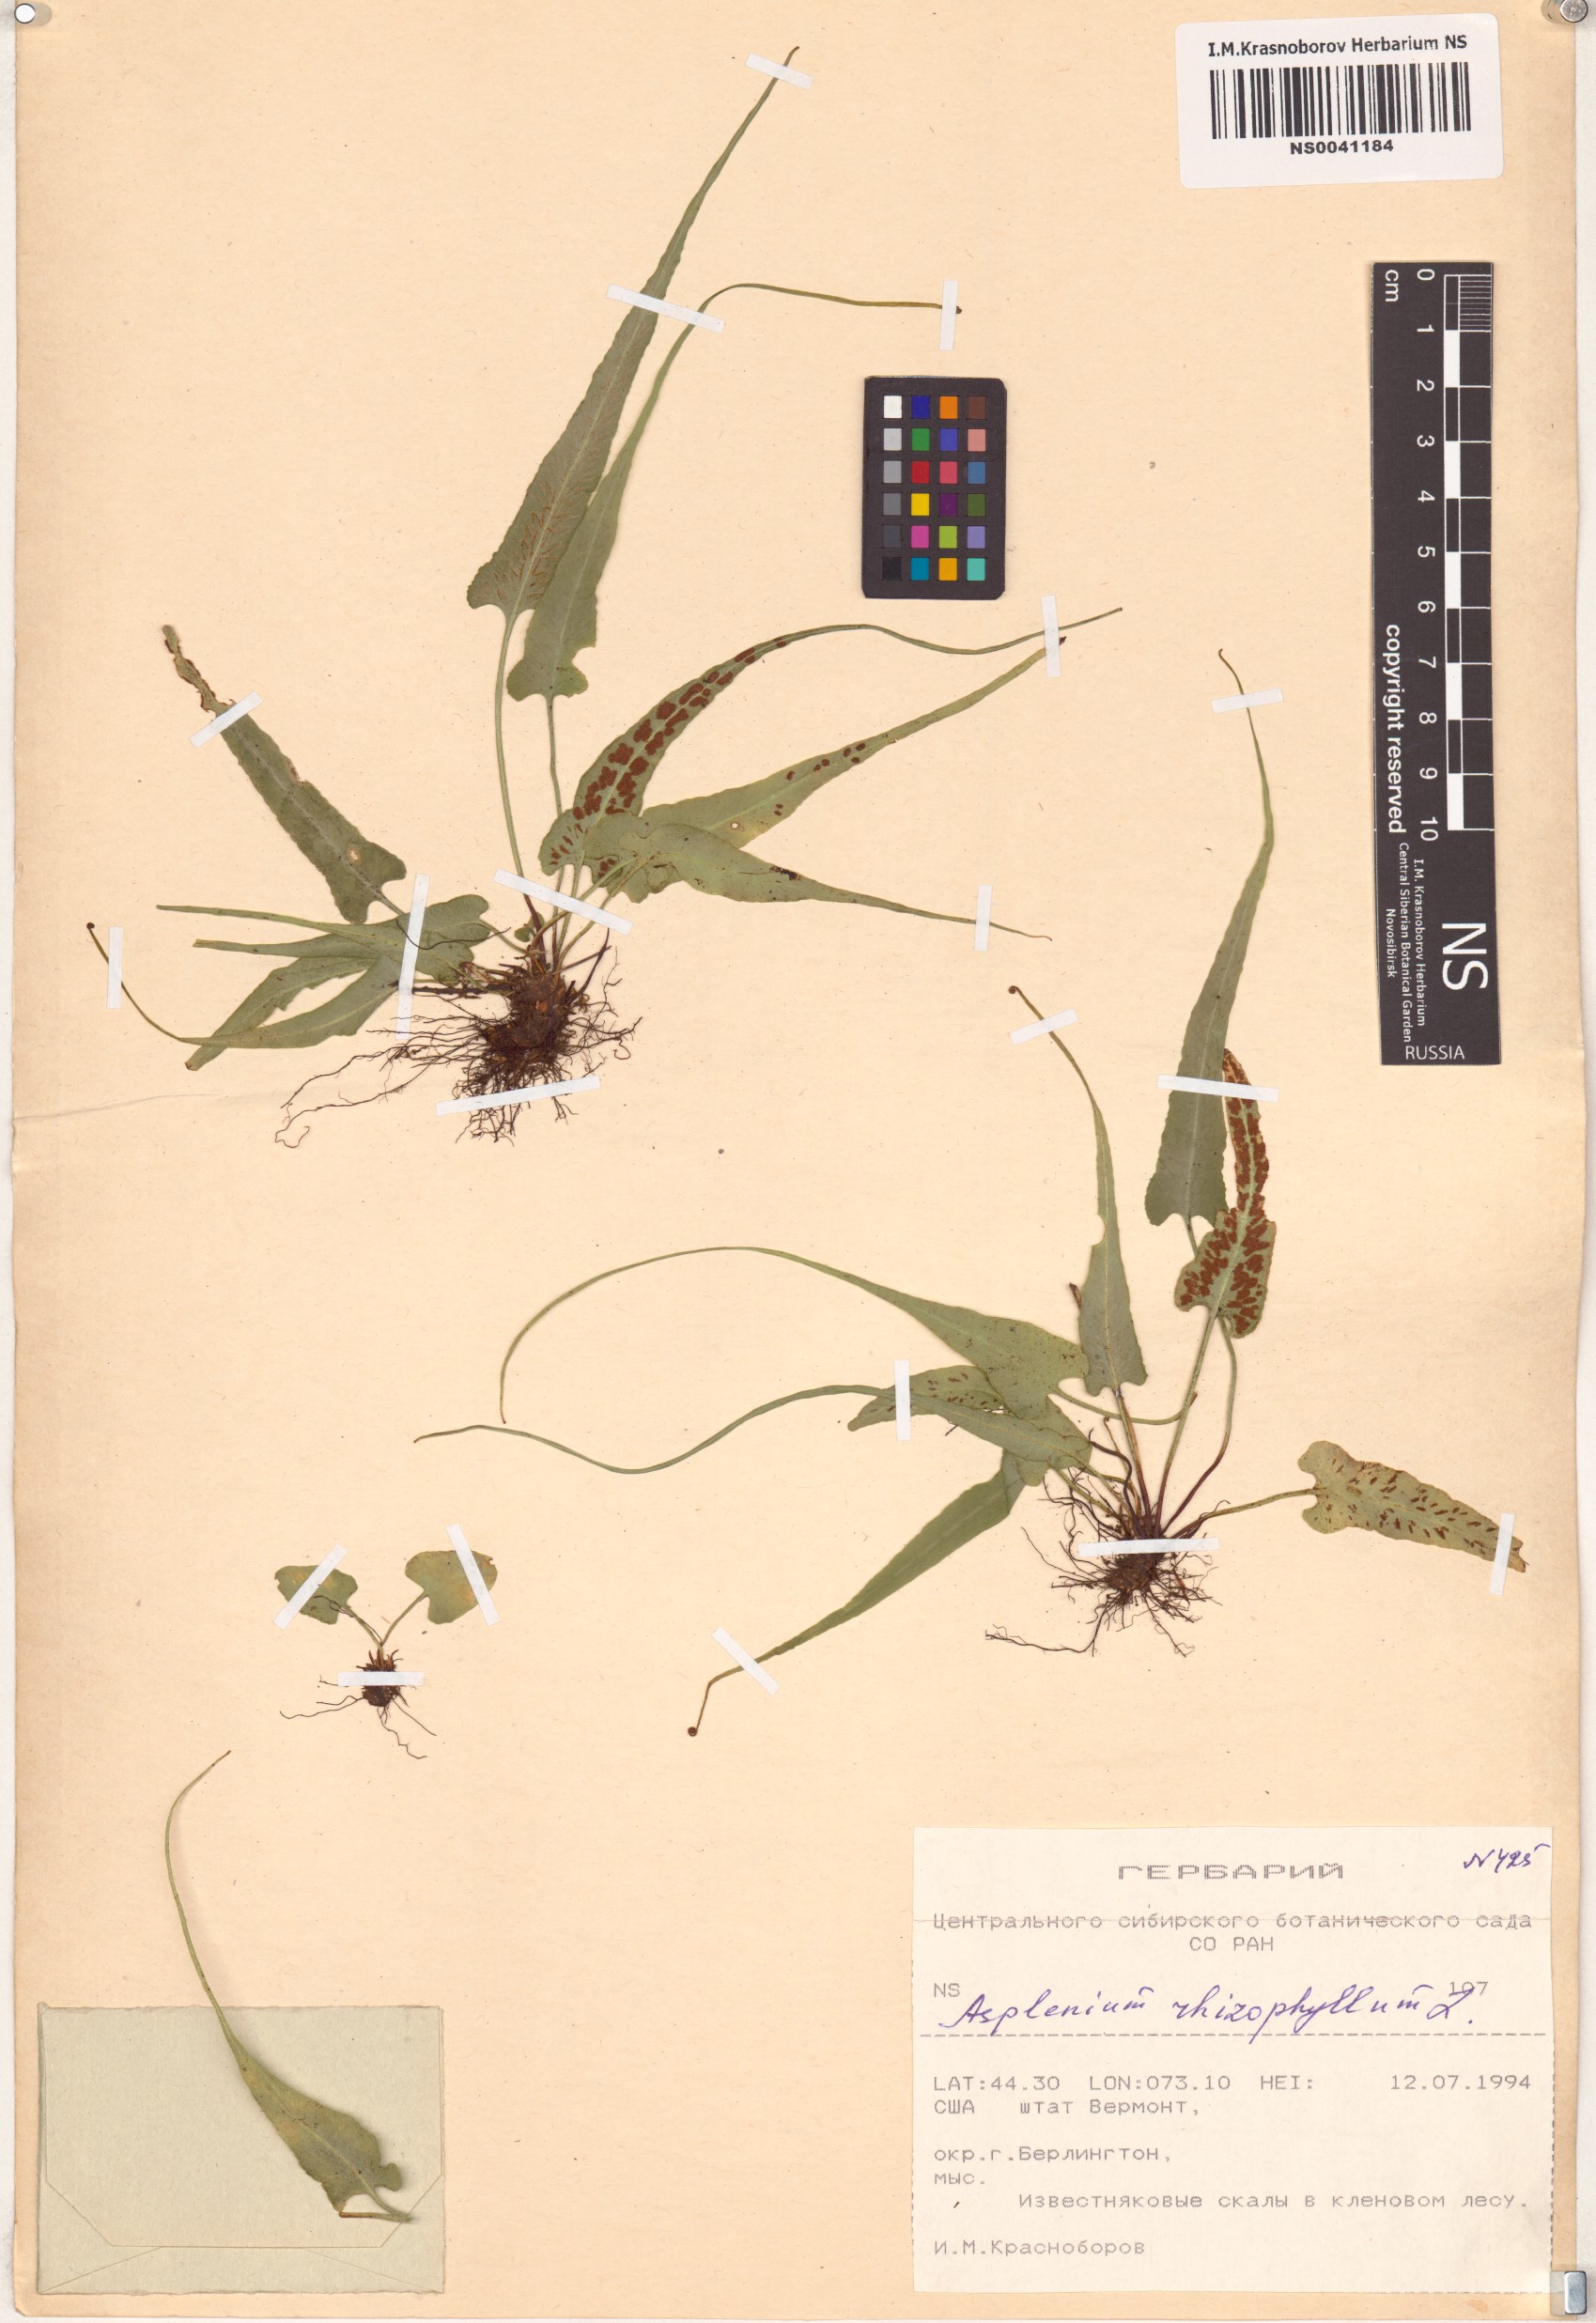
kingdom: Plantae
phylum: Tracheophyta
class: Polypodiopsida
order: Polypodiales
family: Aspleniaceae
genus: Asplenium
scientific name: Asplenium rhizophyllum
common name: Walking fern
